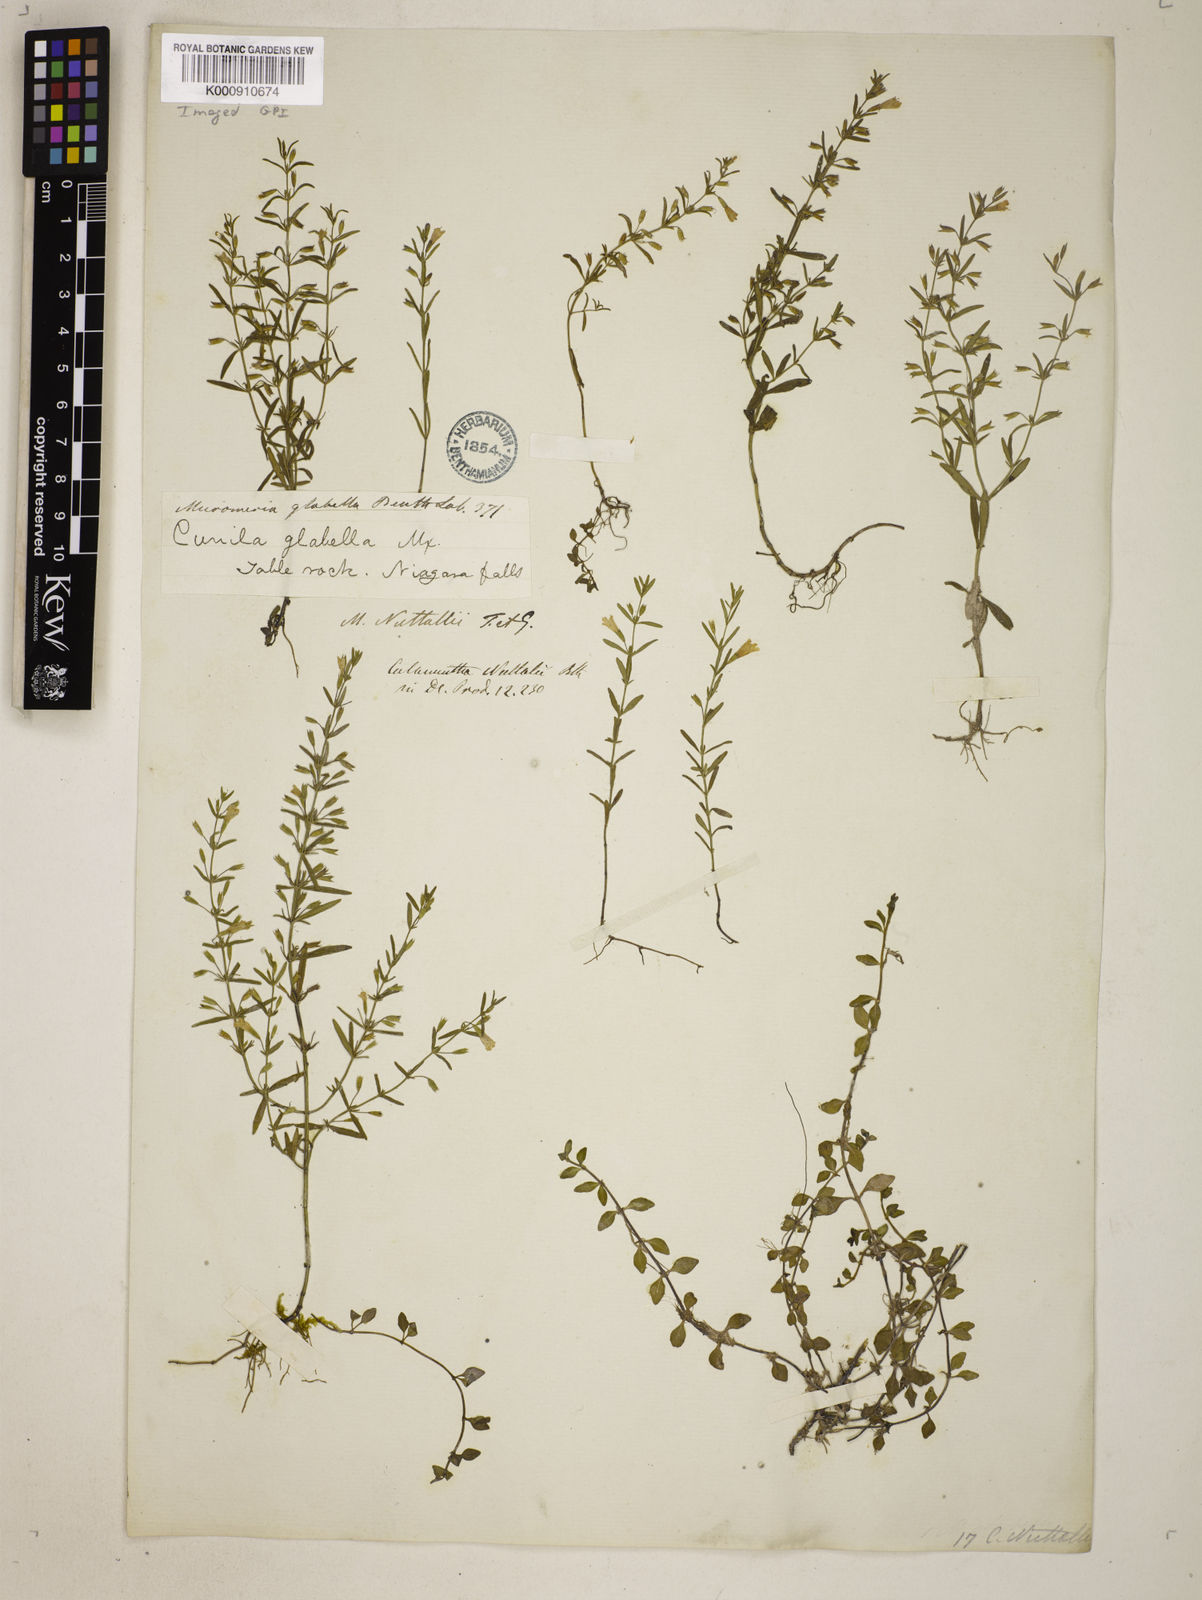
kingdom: Plantae
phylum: Tracheophyta
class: Magnoliopsida
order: Lamiales
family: Lamiaceae
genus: Clinopodium
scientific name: Clinopodium glabellum
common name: Ozark calamint
